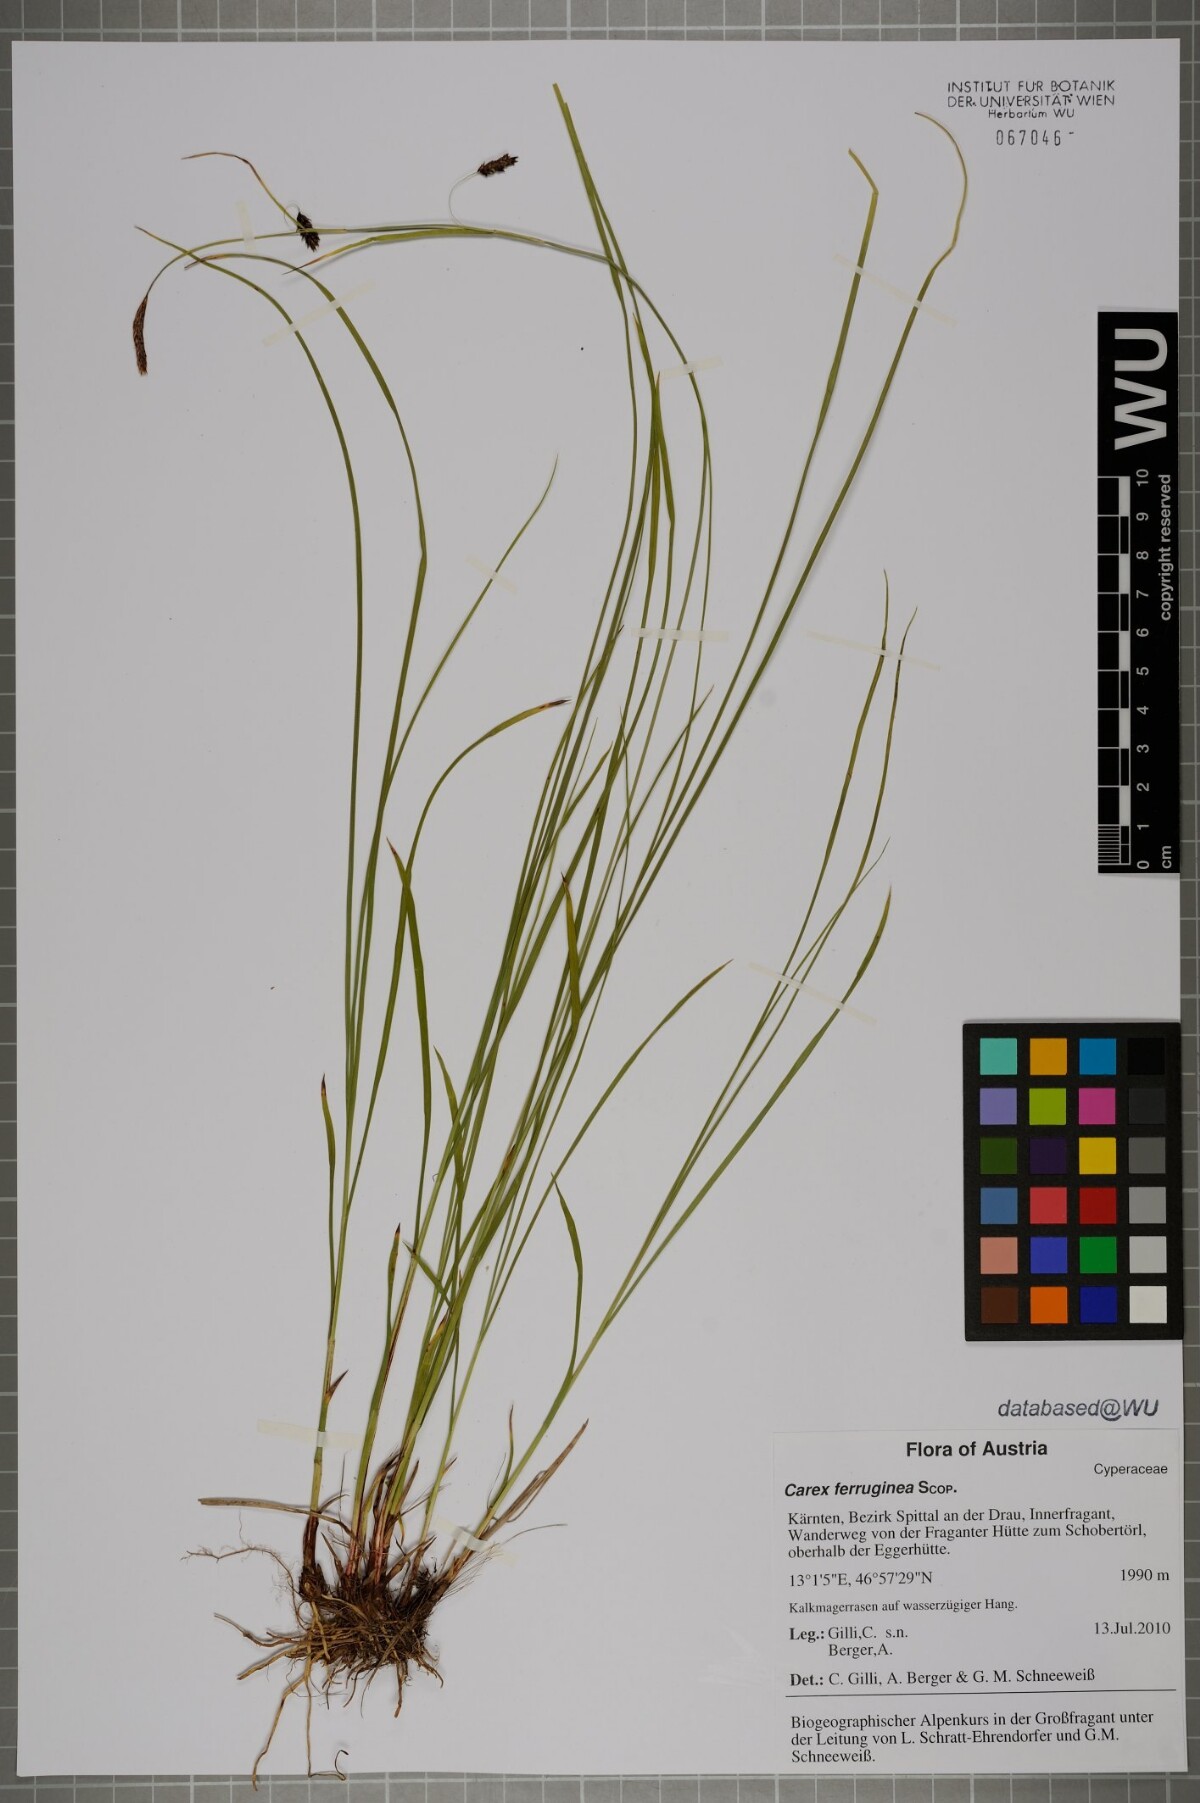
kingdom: Plantae
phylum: Tracheophyta
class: Liliopsida
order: Poales
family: Cyperaceae
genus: Carex
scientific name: Carex ferruginea
